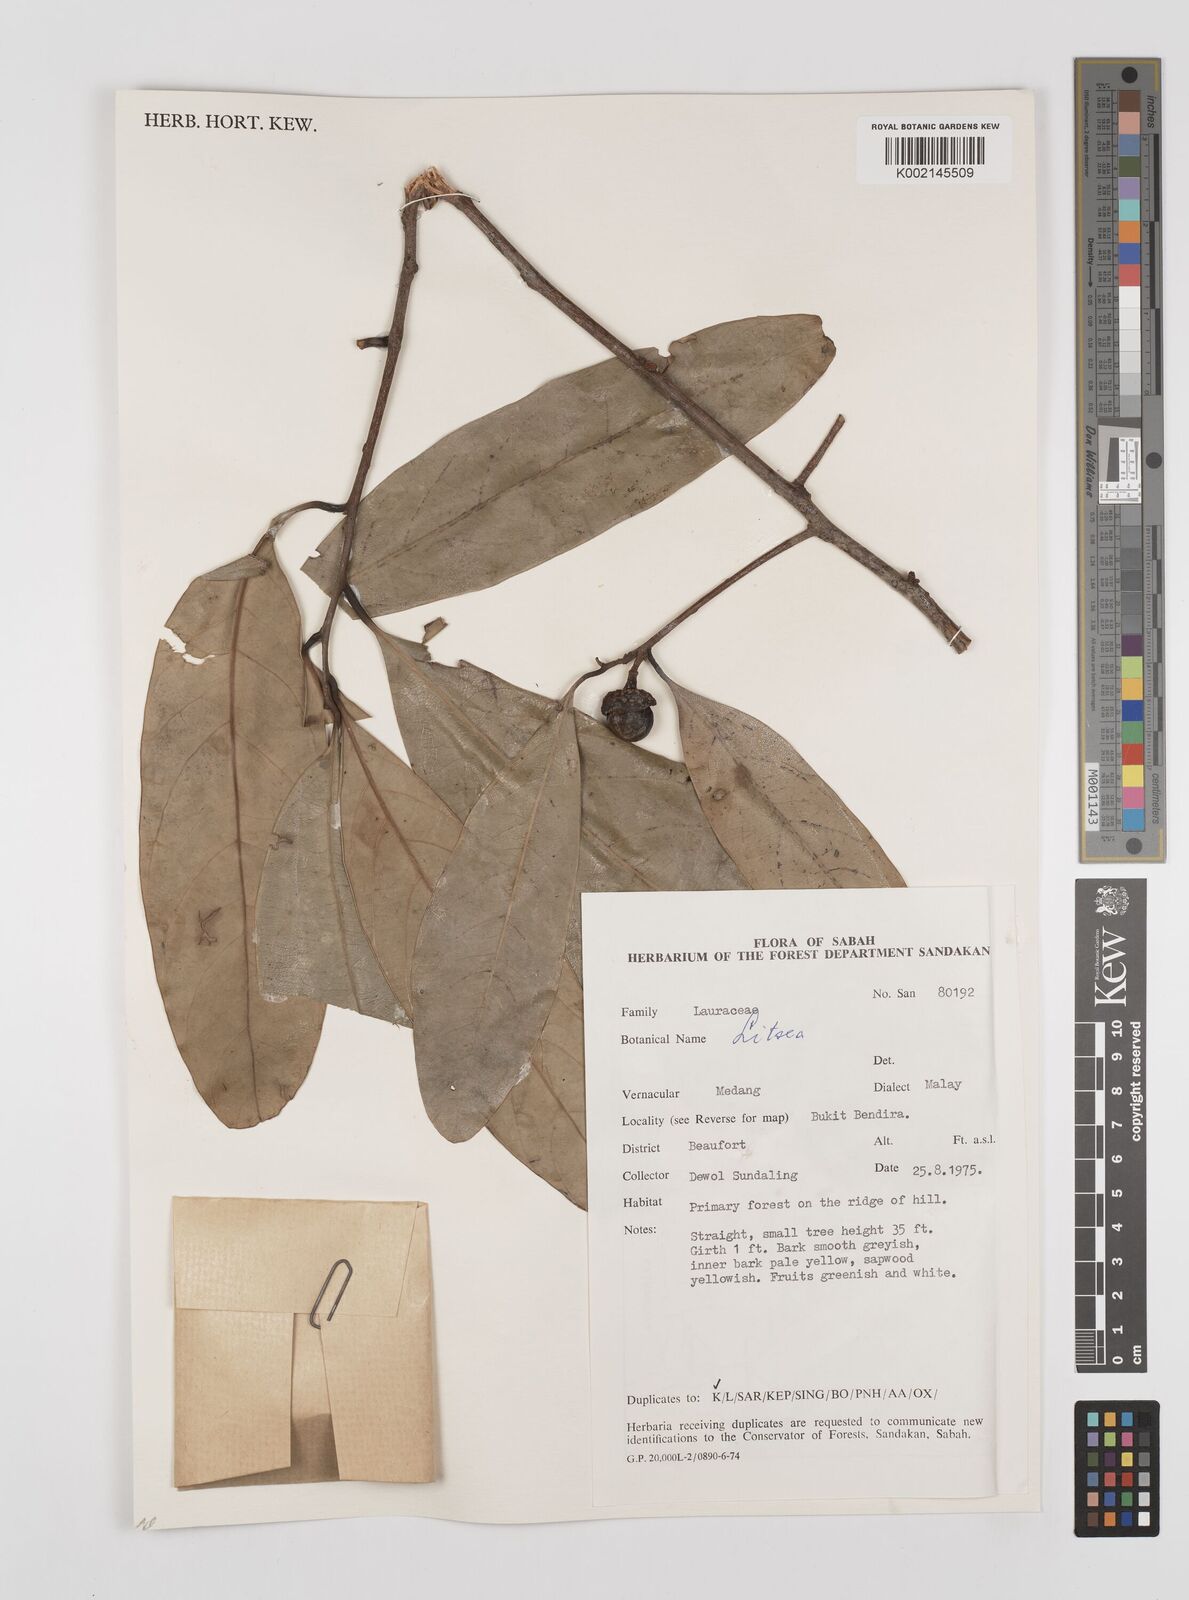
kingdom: Plantae
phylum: Tracheophyta
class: Magnoliopsida
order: Laurales
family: Lauraceae
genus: Litsea
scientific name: Litsea
